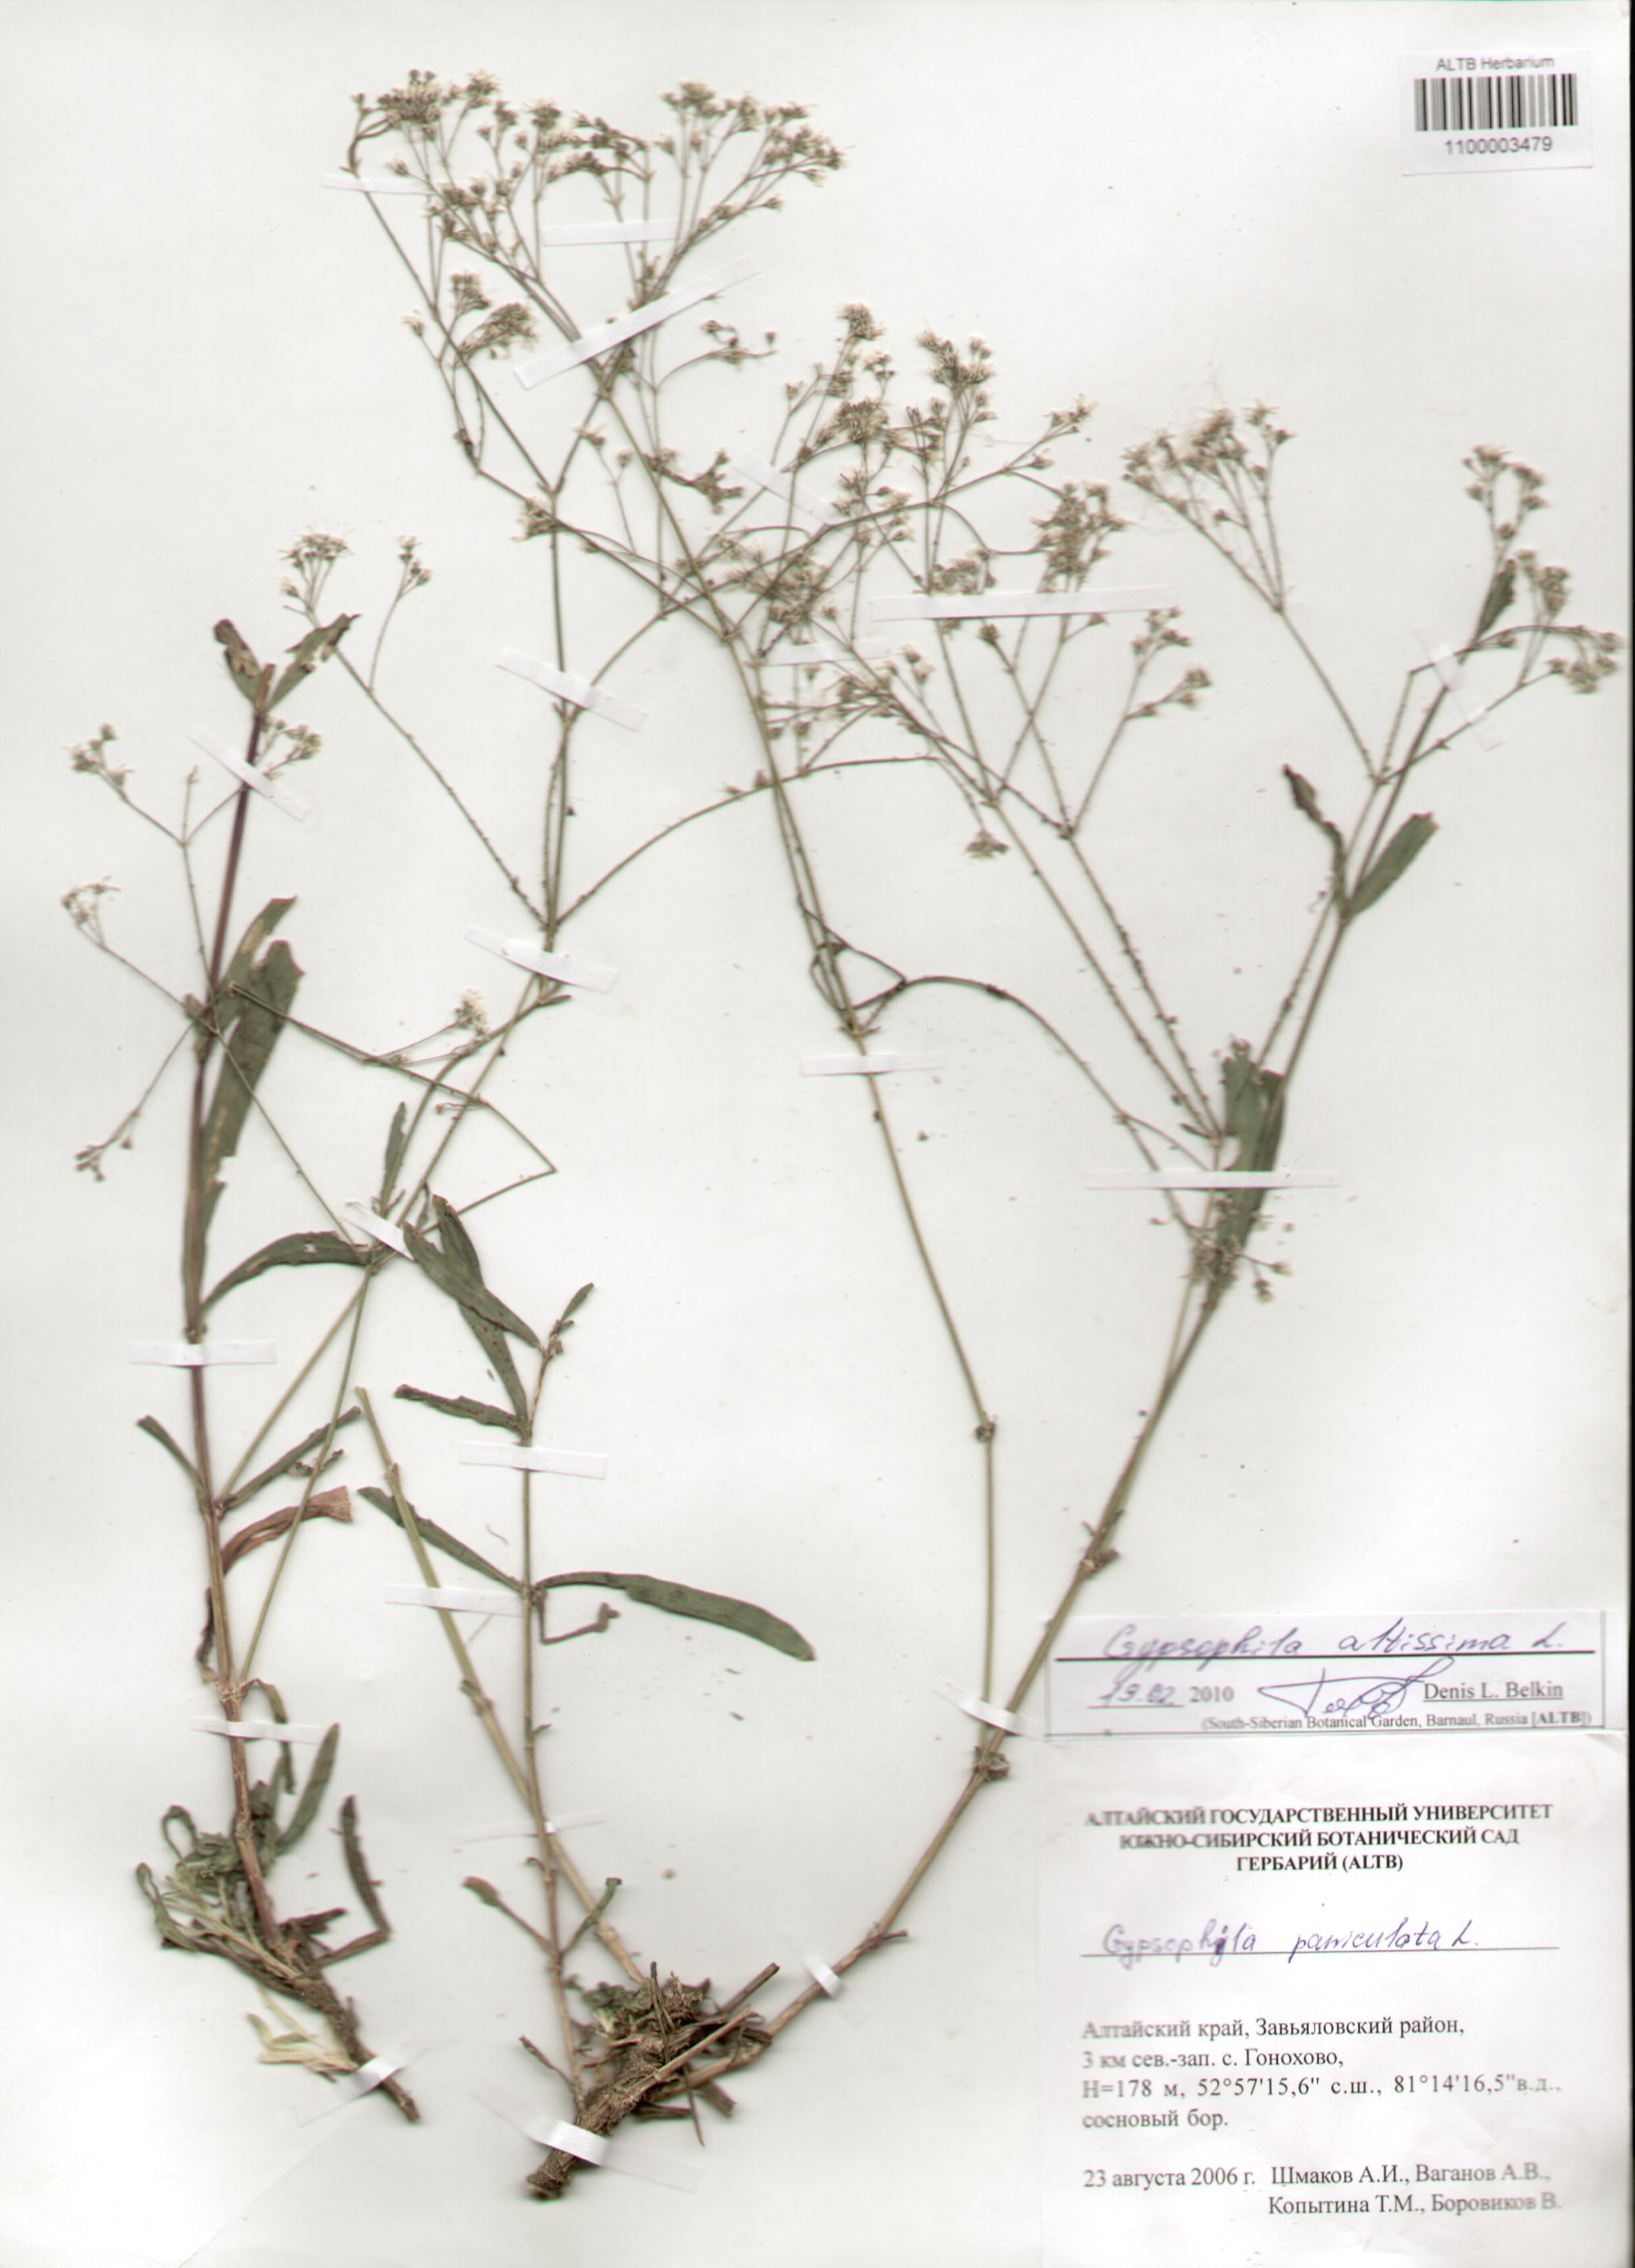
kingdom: Plantae
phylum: Tracheophyta
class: Magnoliopsida
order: Caryophyllales
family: Caryophyllaceae
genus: Gypsophila
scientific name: Gypsophila altissima
